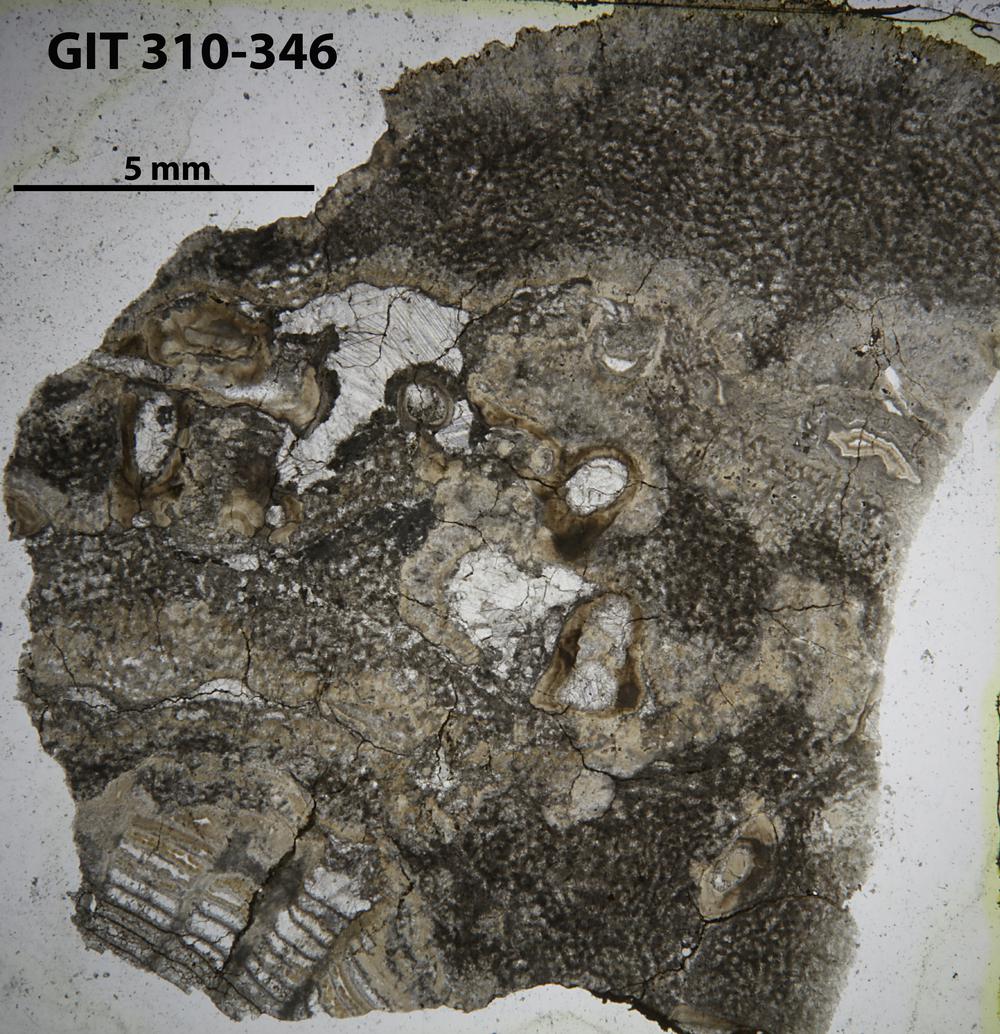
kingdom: Animalia
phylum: Porifera
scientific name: Porifera
